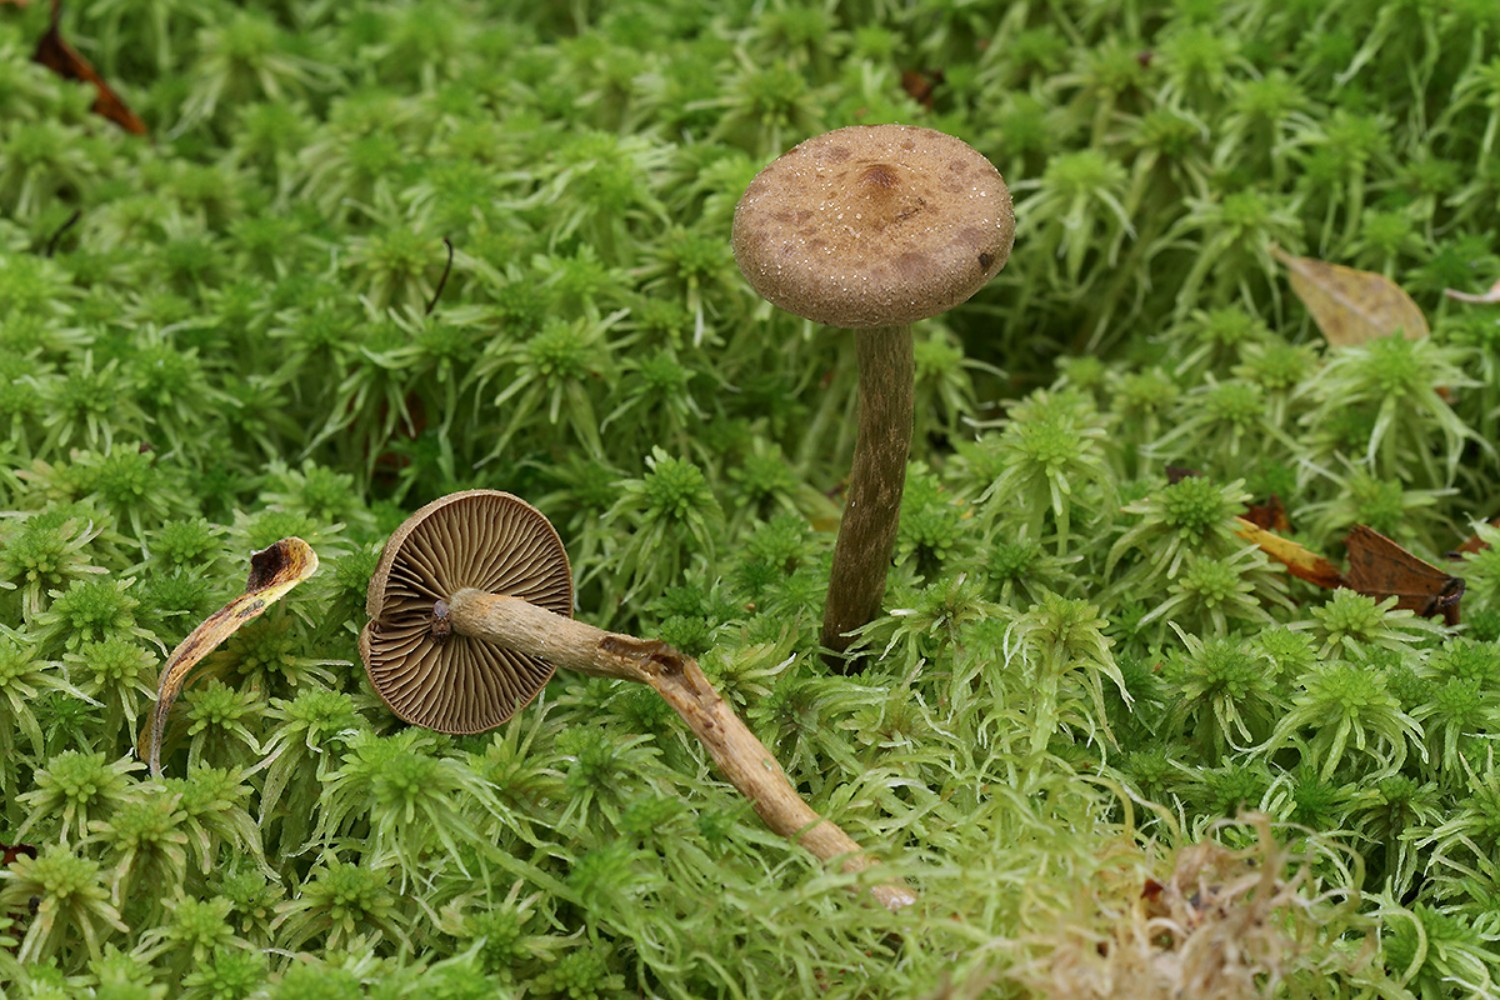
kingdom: Fungi
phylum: Basidiomycota
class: Agaricomycetes
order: Agaricales
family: Cortinariaceae
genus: Cortinarius
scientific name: Cortinarius chrysolitus
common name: tørve-slørhat
